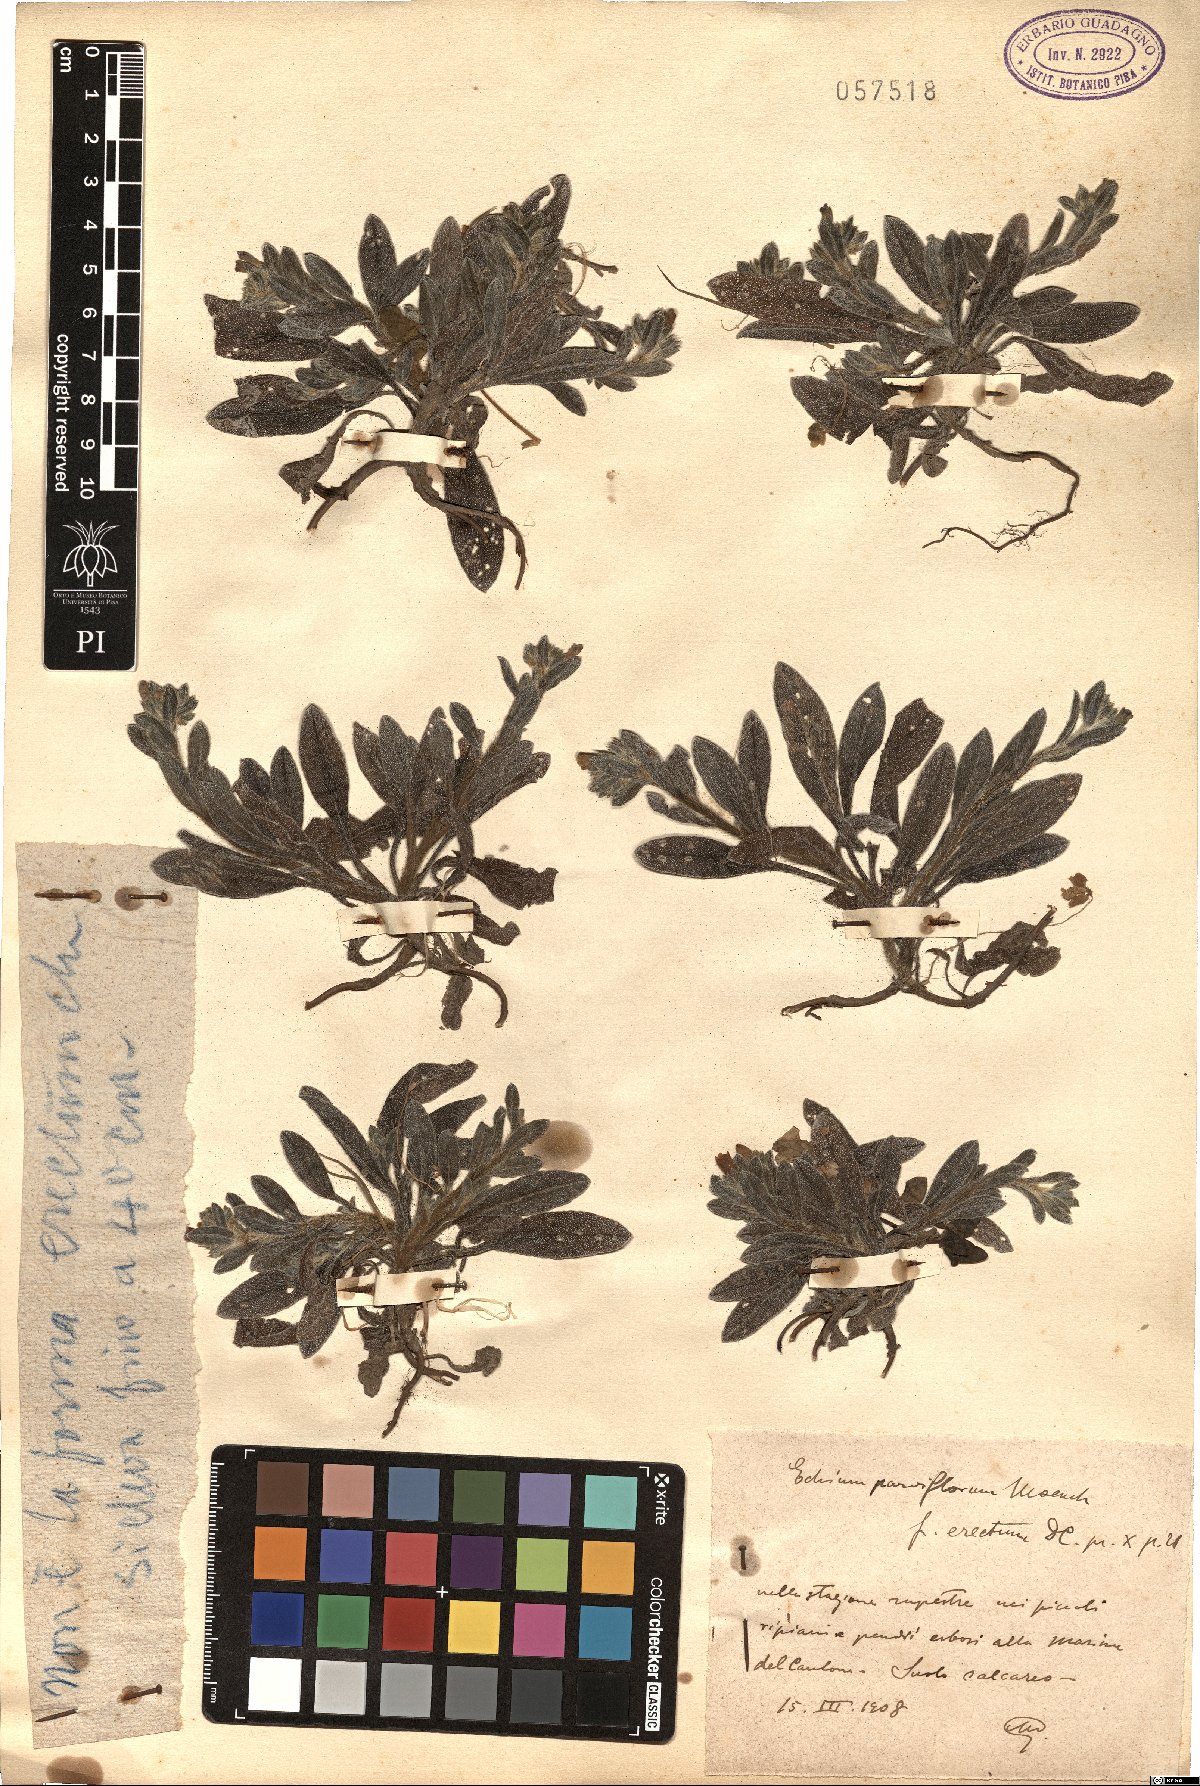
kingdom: Plantae
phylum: Tracheophyta
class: Magnoliopsida
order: Boraginales
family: Boraginaceae
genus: Echium
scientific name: Echium parviflorum
